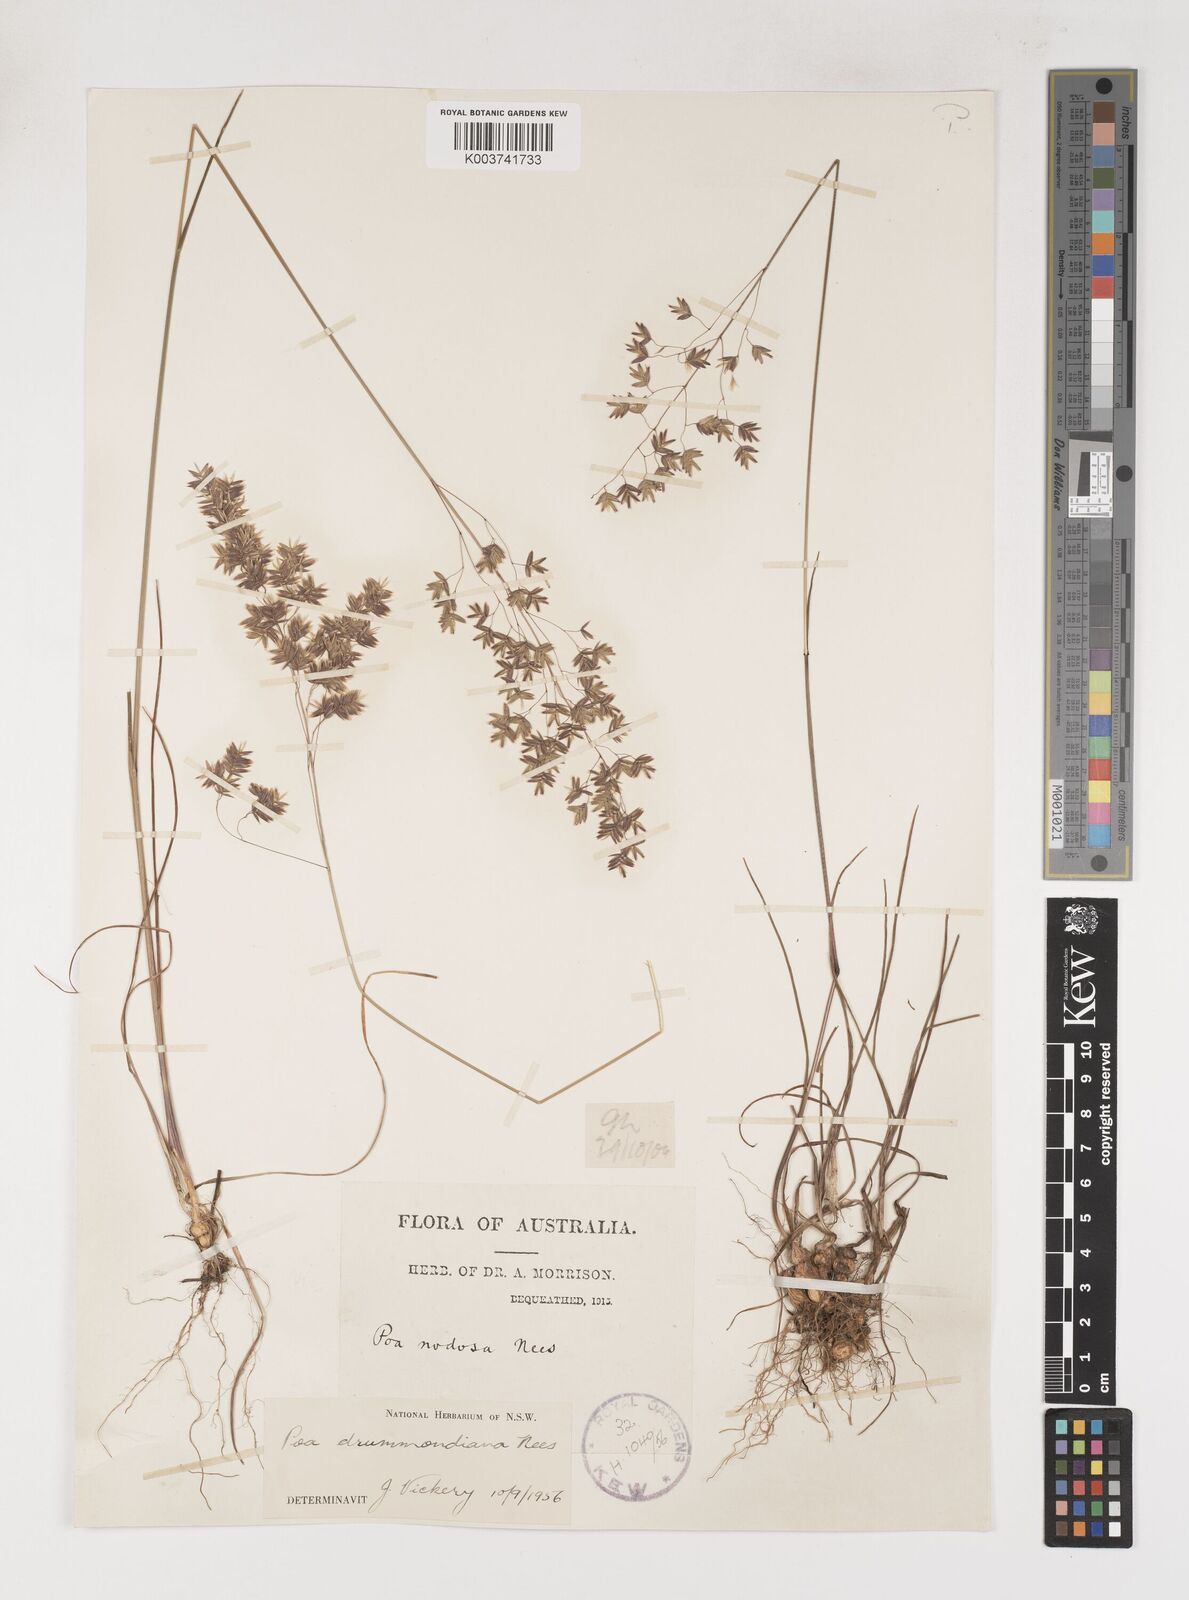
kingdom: Plantae
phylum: Tracheophyta
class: Liliopsida
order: Poales
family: Poaceae
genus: Poa
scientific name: Poa drummondiana
